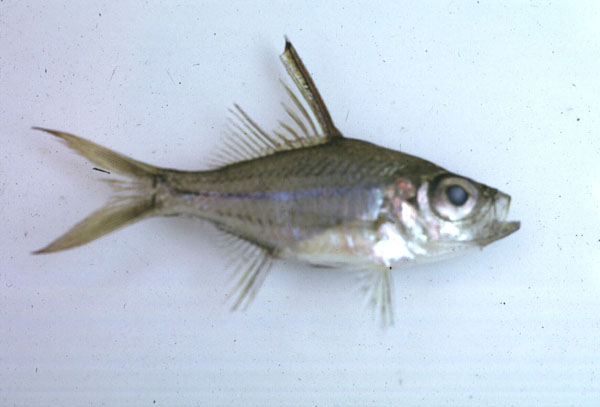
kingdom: Animalia
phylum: Chordata
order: Perciformes
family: Ambassidae
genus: Ambassis
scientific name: Ambassis
